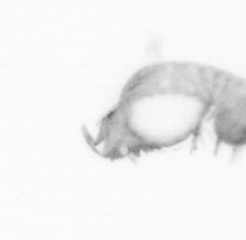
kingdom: Animalia
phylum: Annelida
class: Polychaeta
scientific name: Polychaeta
